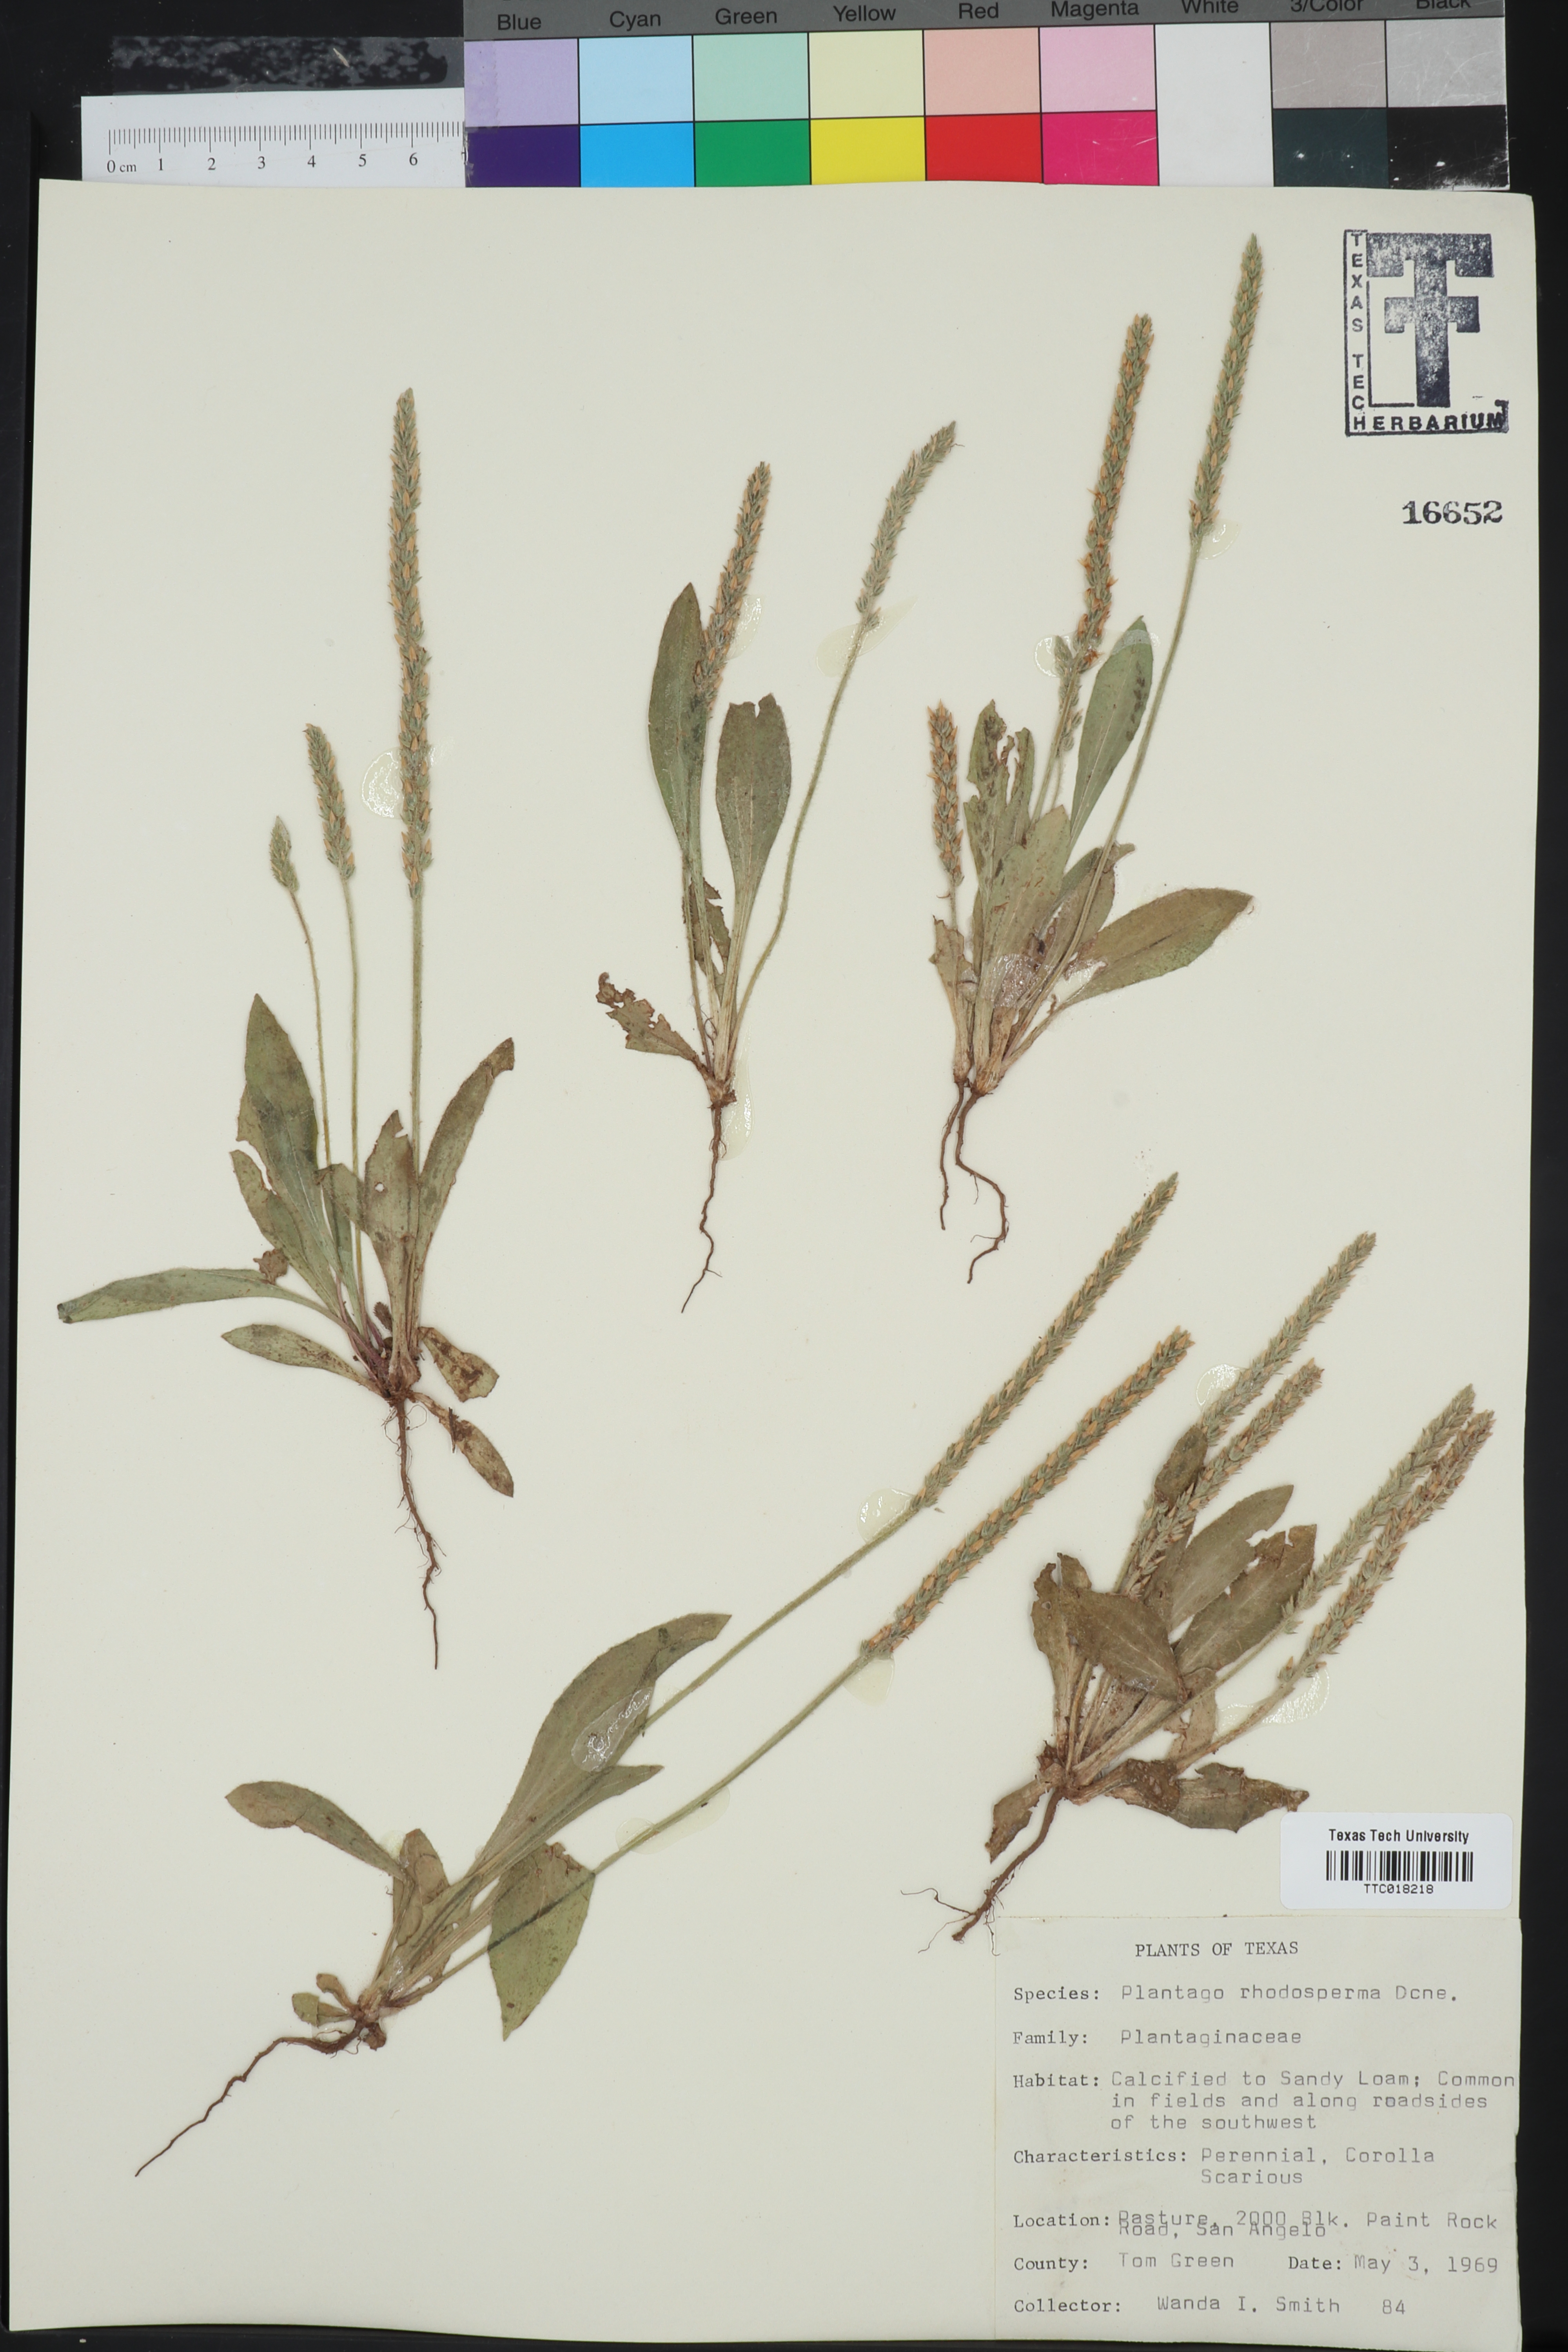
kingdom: Plantae
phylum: Tracheophyta
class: Magnoliopsida
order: Lamiales
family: Plantaginaceae
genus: Plantago
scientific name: Plantago rhodosperma
